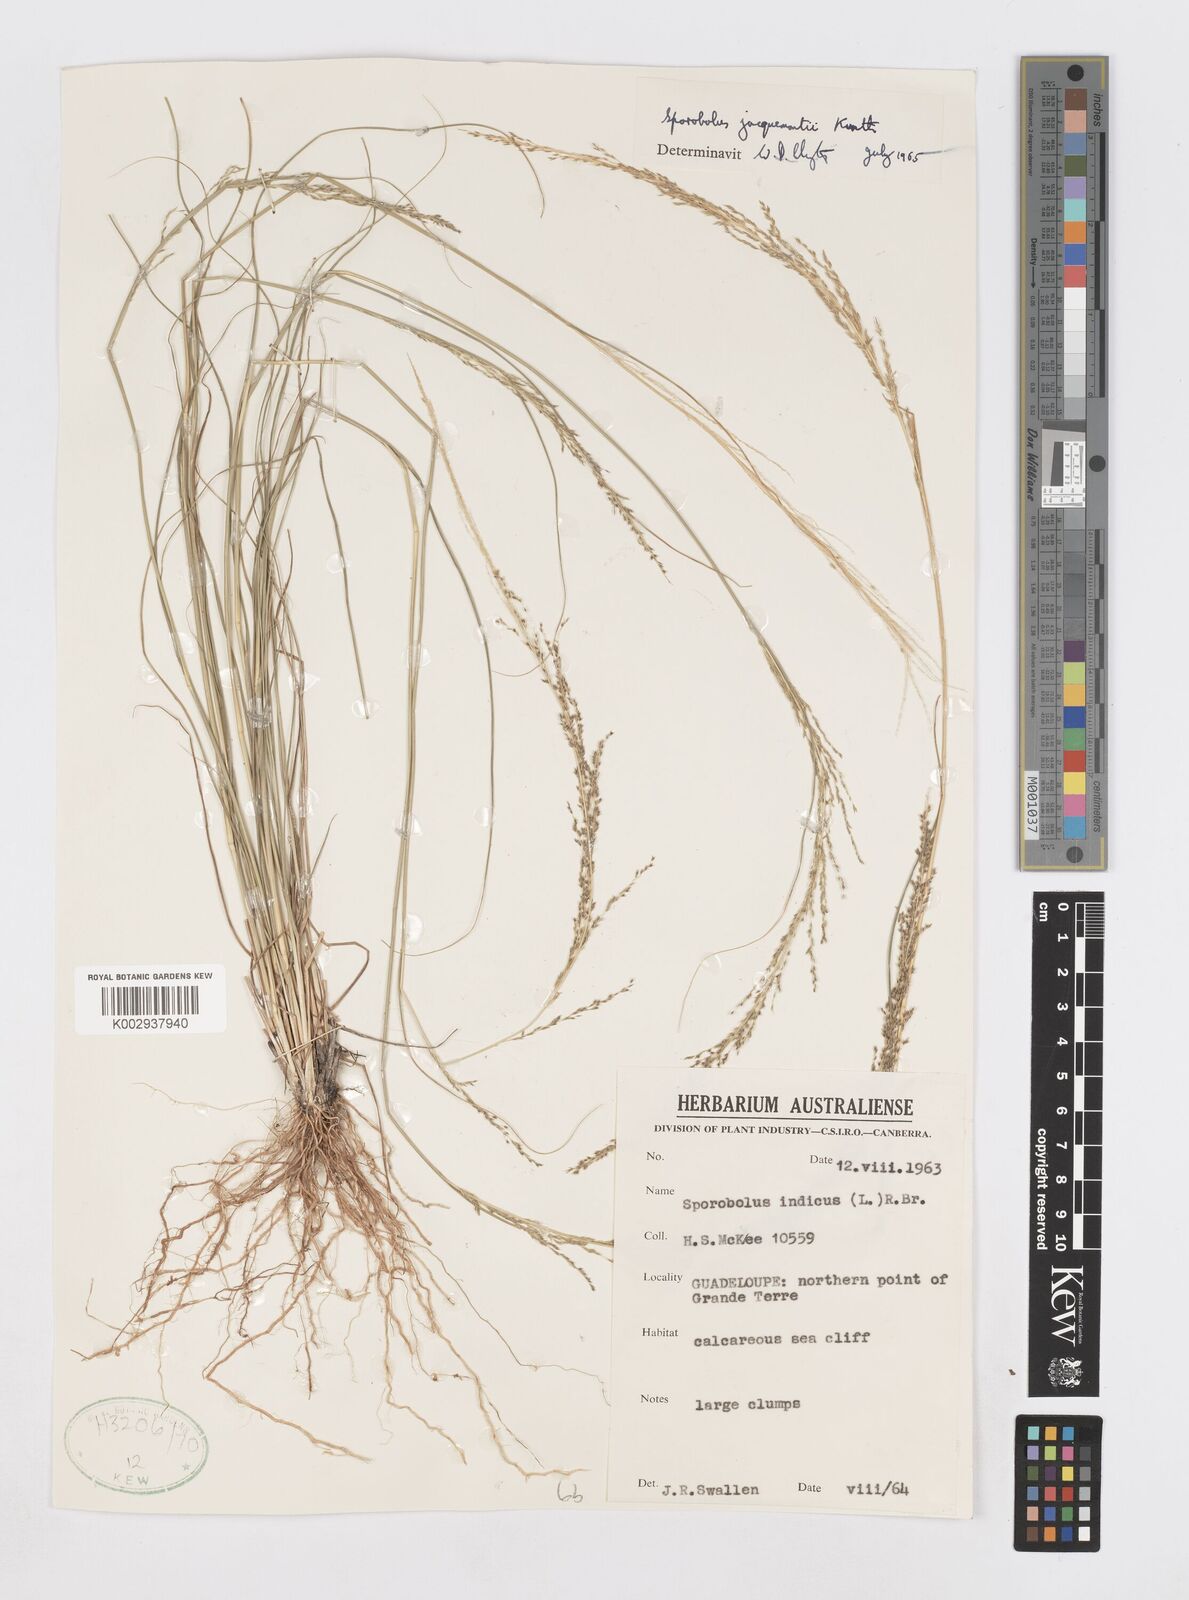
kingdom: Plantae
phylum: Tracheophyta
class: Liliopsida
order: Poales
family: Poaceae
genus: Sporobolus
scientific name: Sporobolus pyramidalis
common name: West indian dropseed
